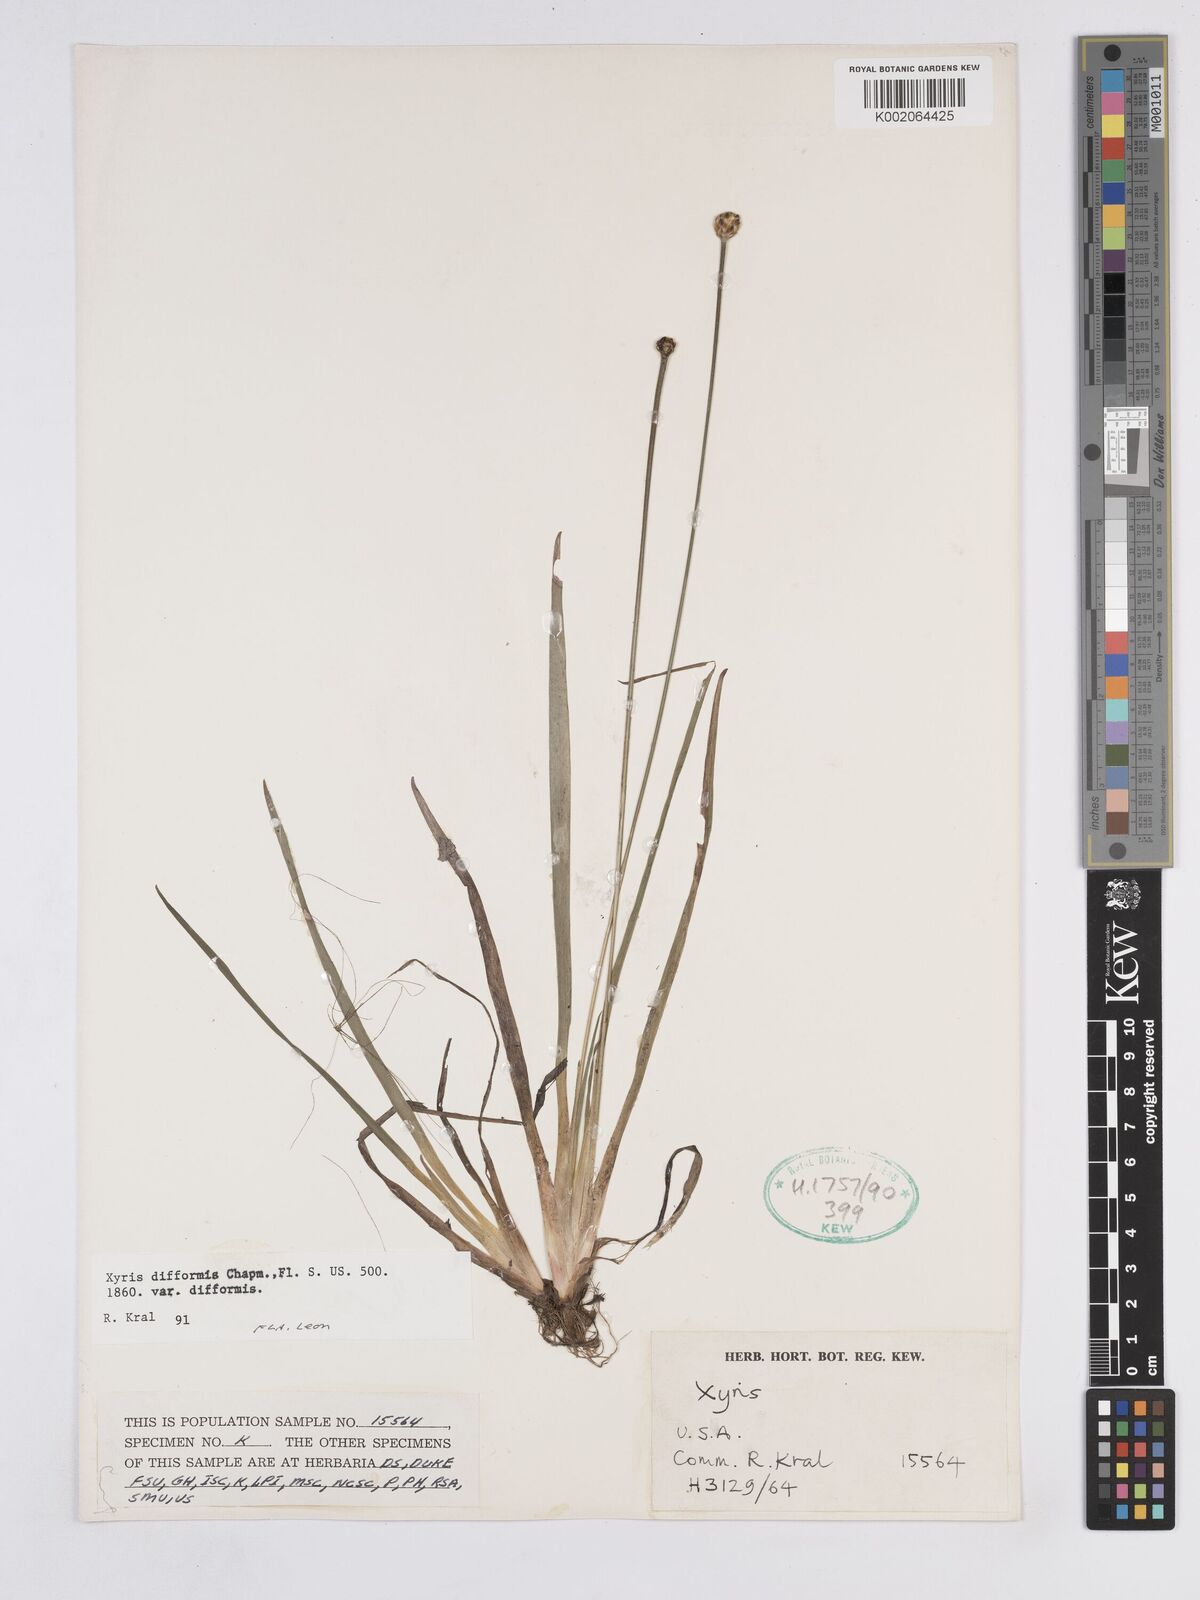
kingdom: Plantae
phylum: Tracheophyta
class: Liliopsida
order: Poales
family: Xyridaceae
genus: Xyris
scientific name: Xyris difformis
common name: Bog yellow-eyed-grass
